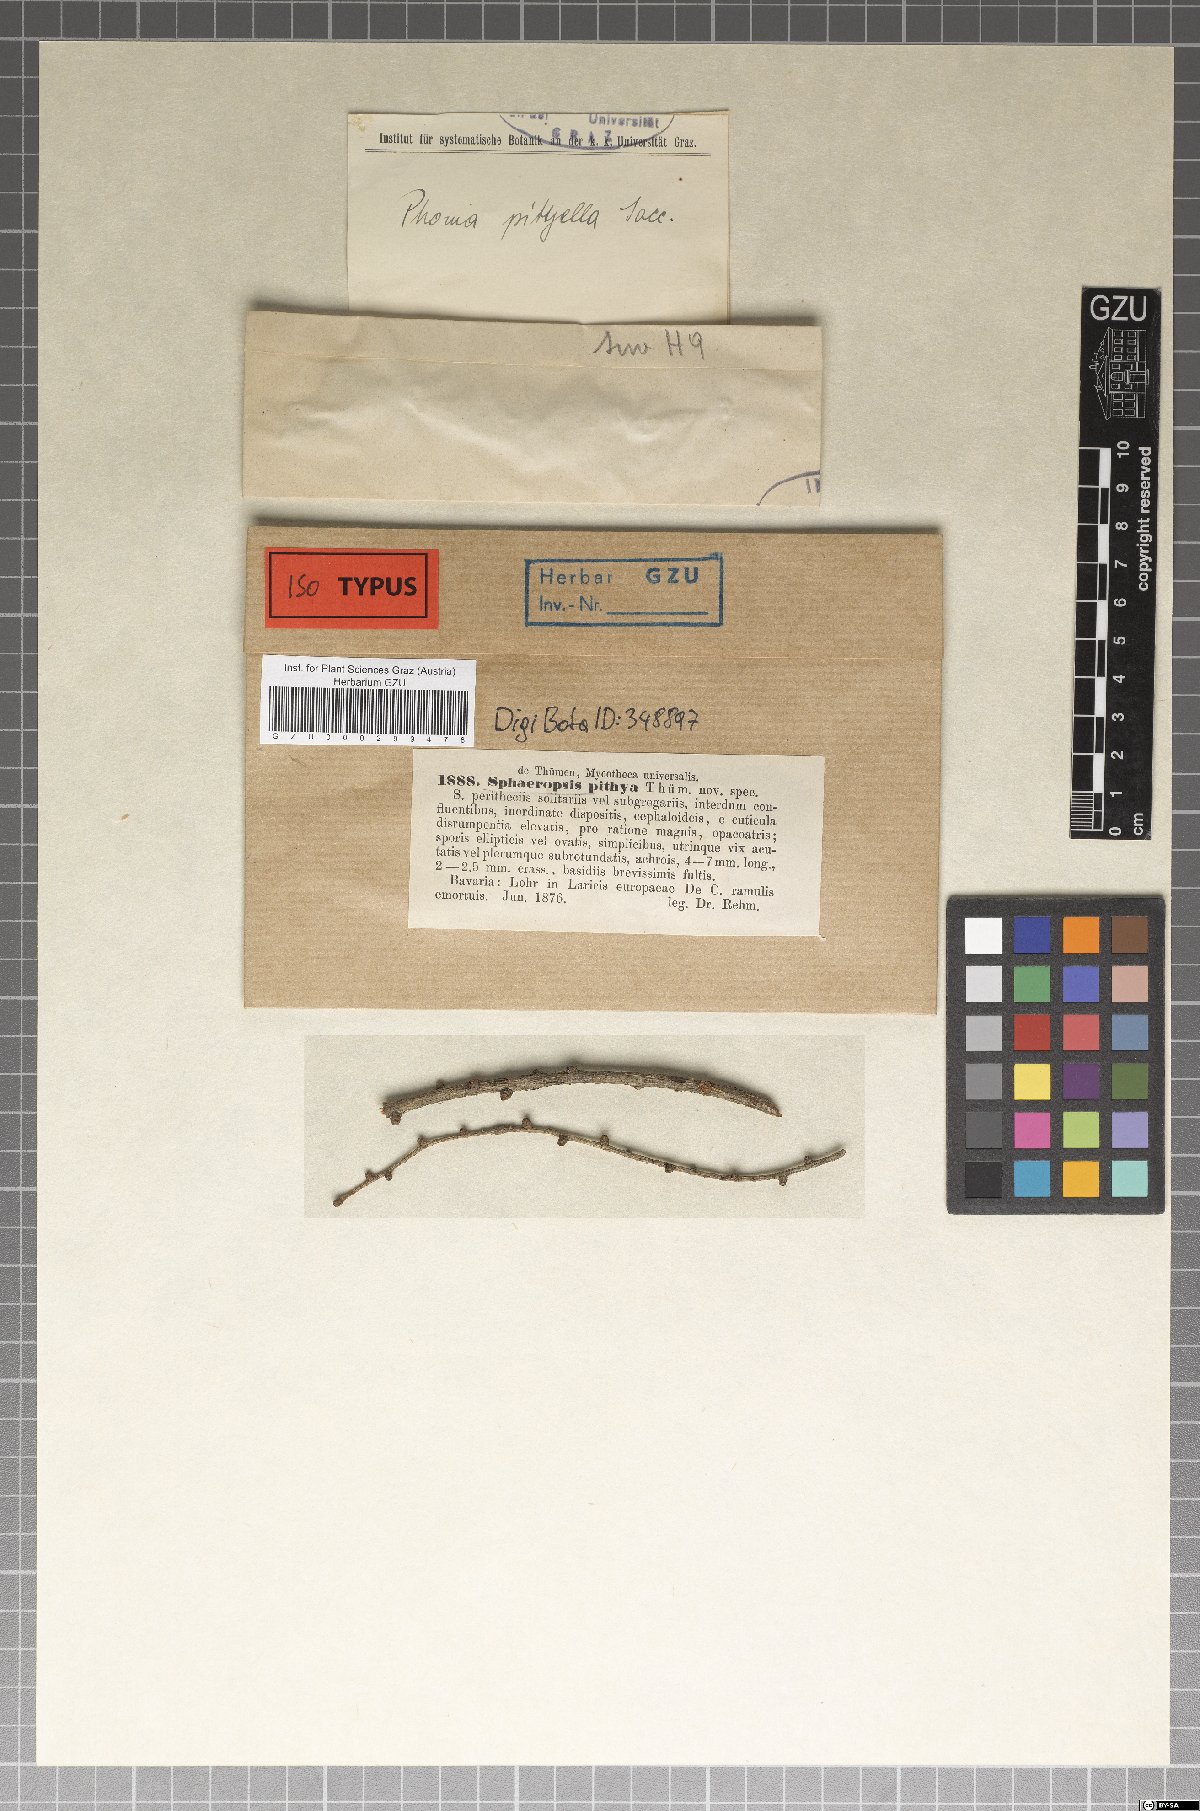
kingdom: Fungi
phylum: Ascomycota
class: Dothideomycetes
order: Dothideales
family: Dothioraceae
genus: Sclerophoma
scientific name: Sclerophoma pitya
